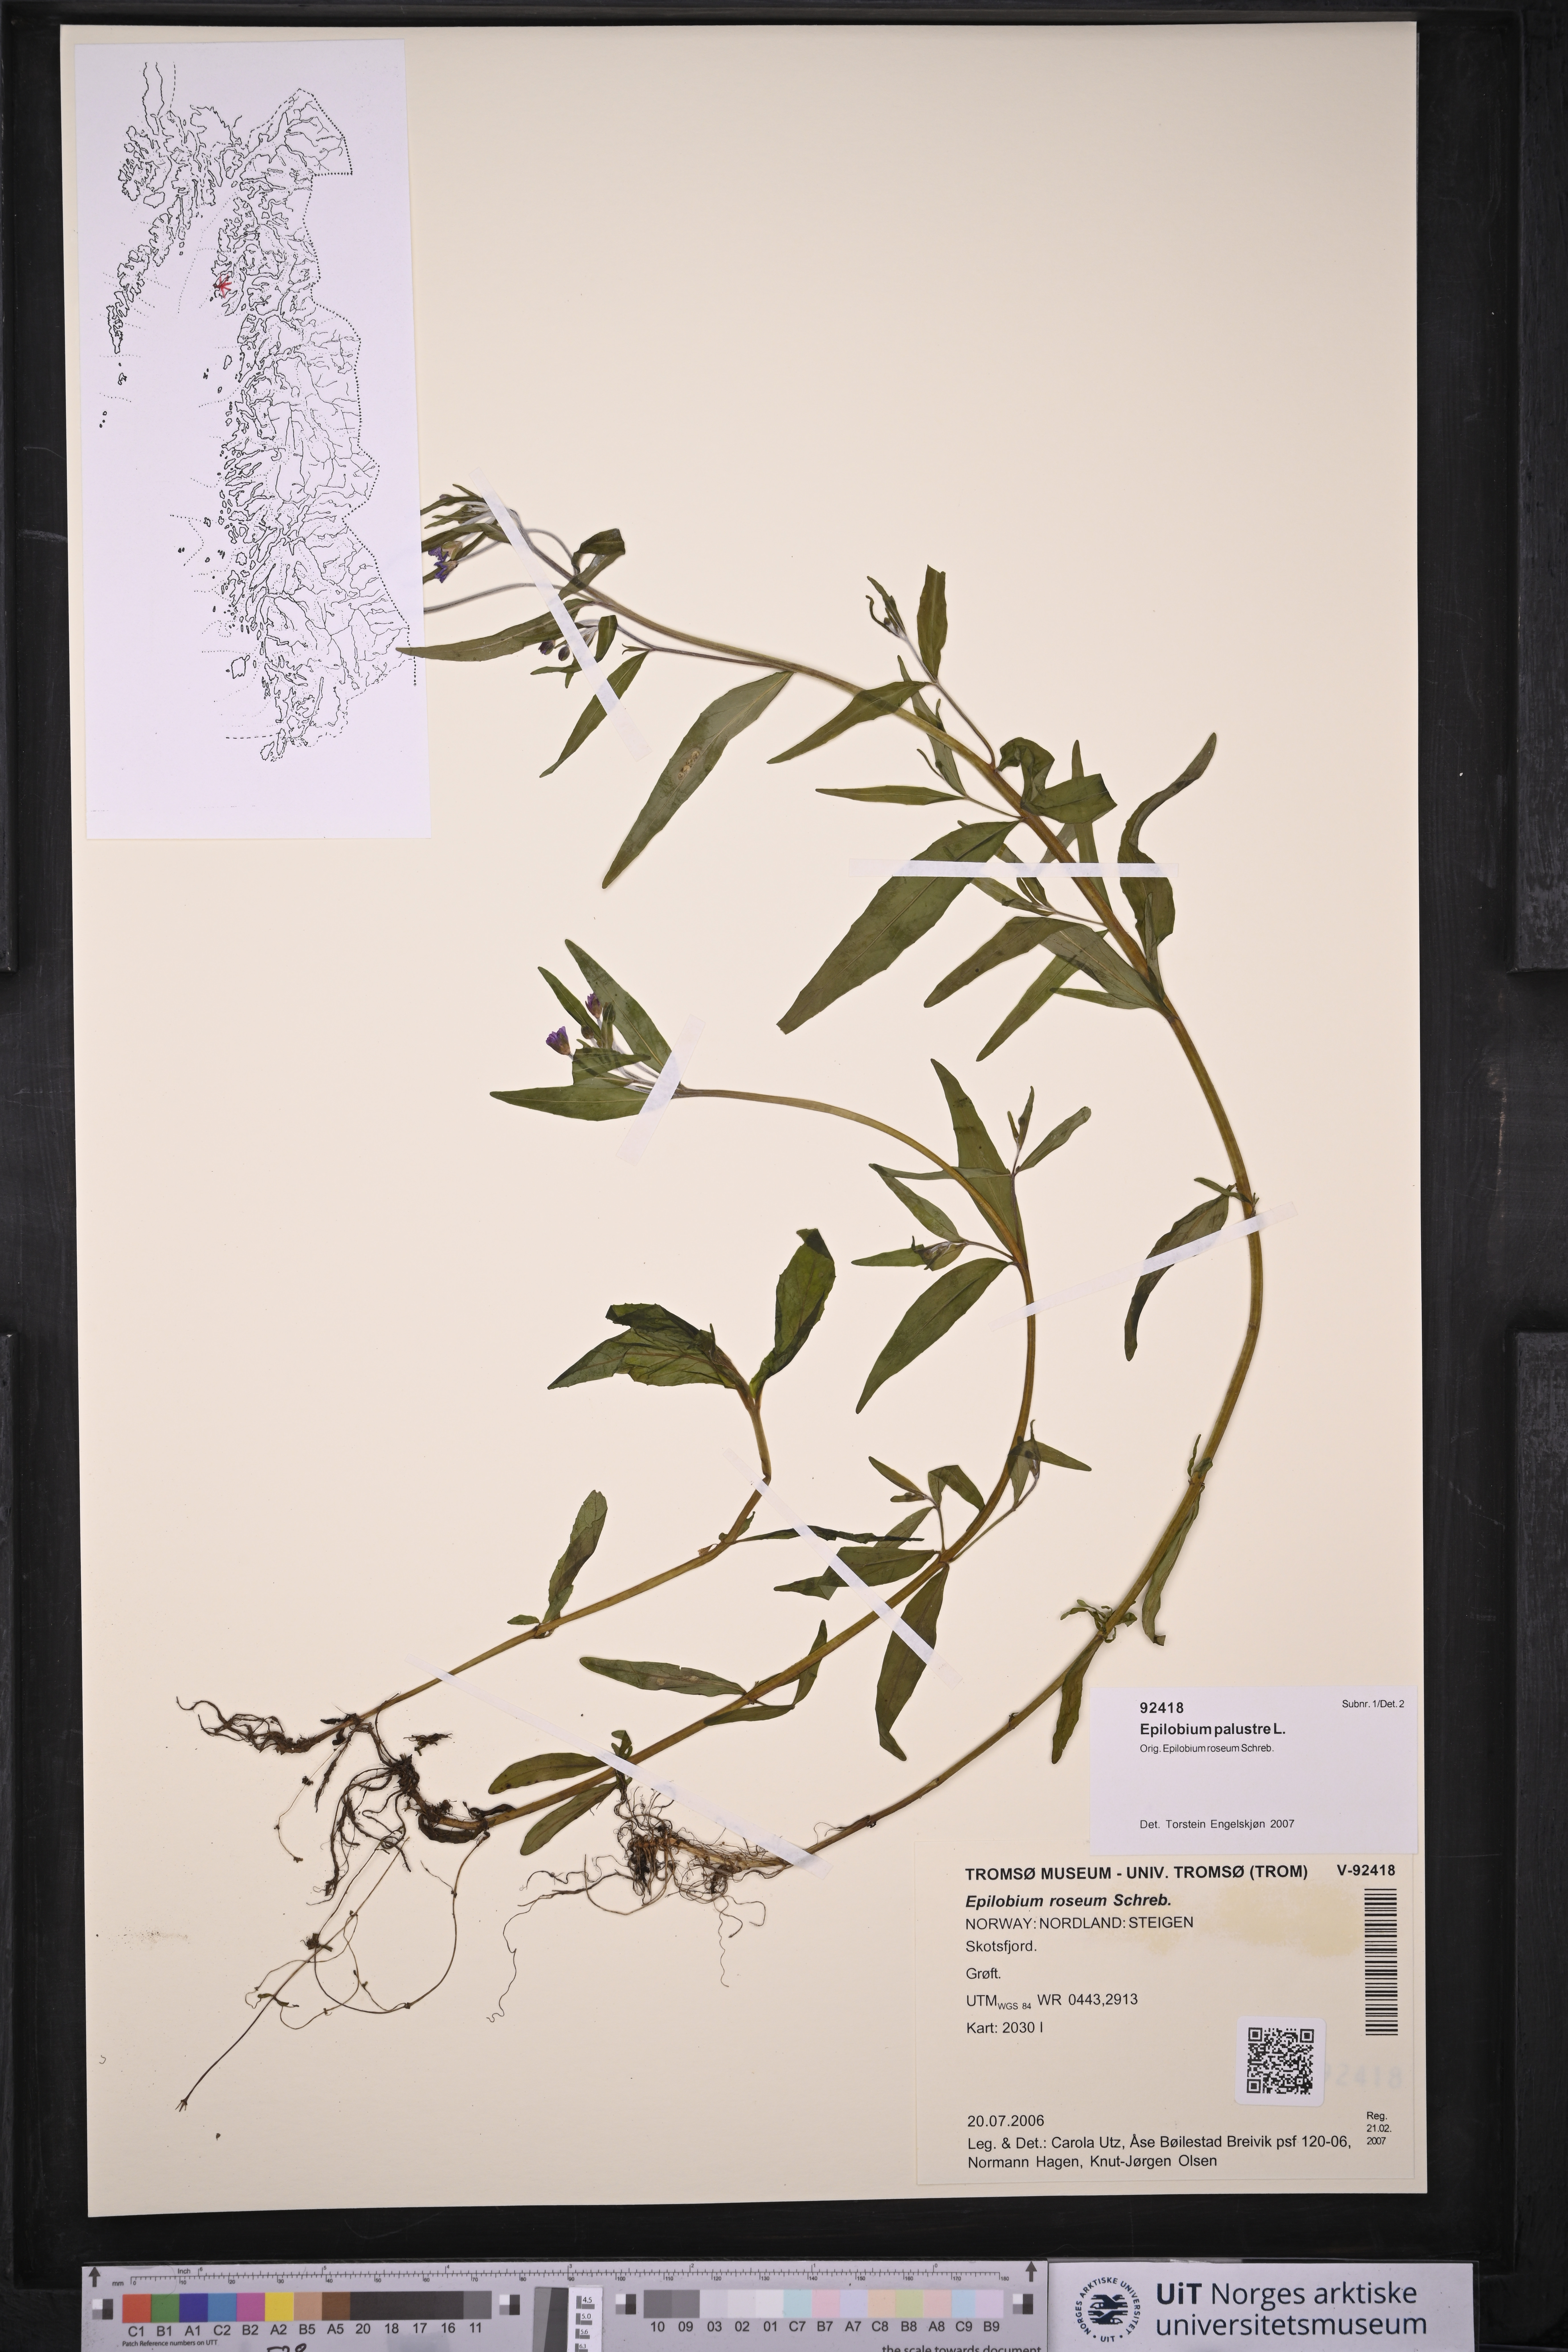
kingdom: Plantae
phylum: Tracheophyta
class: Magnoliopsida
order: Myrtales
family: Onagraceae
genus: Epilobium
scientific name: Epilobium palustre
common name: Marsh willowherb
